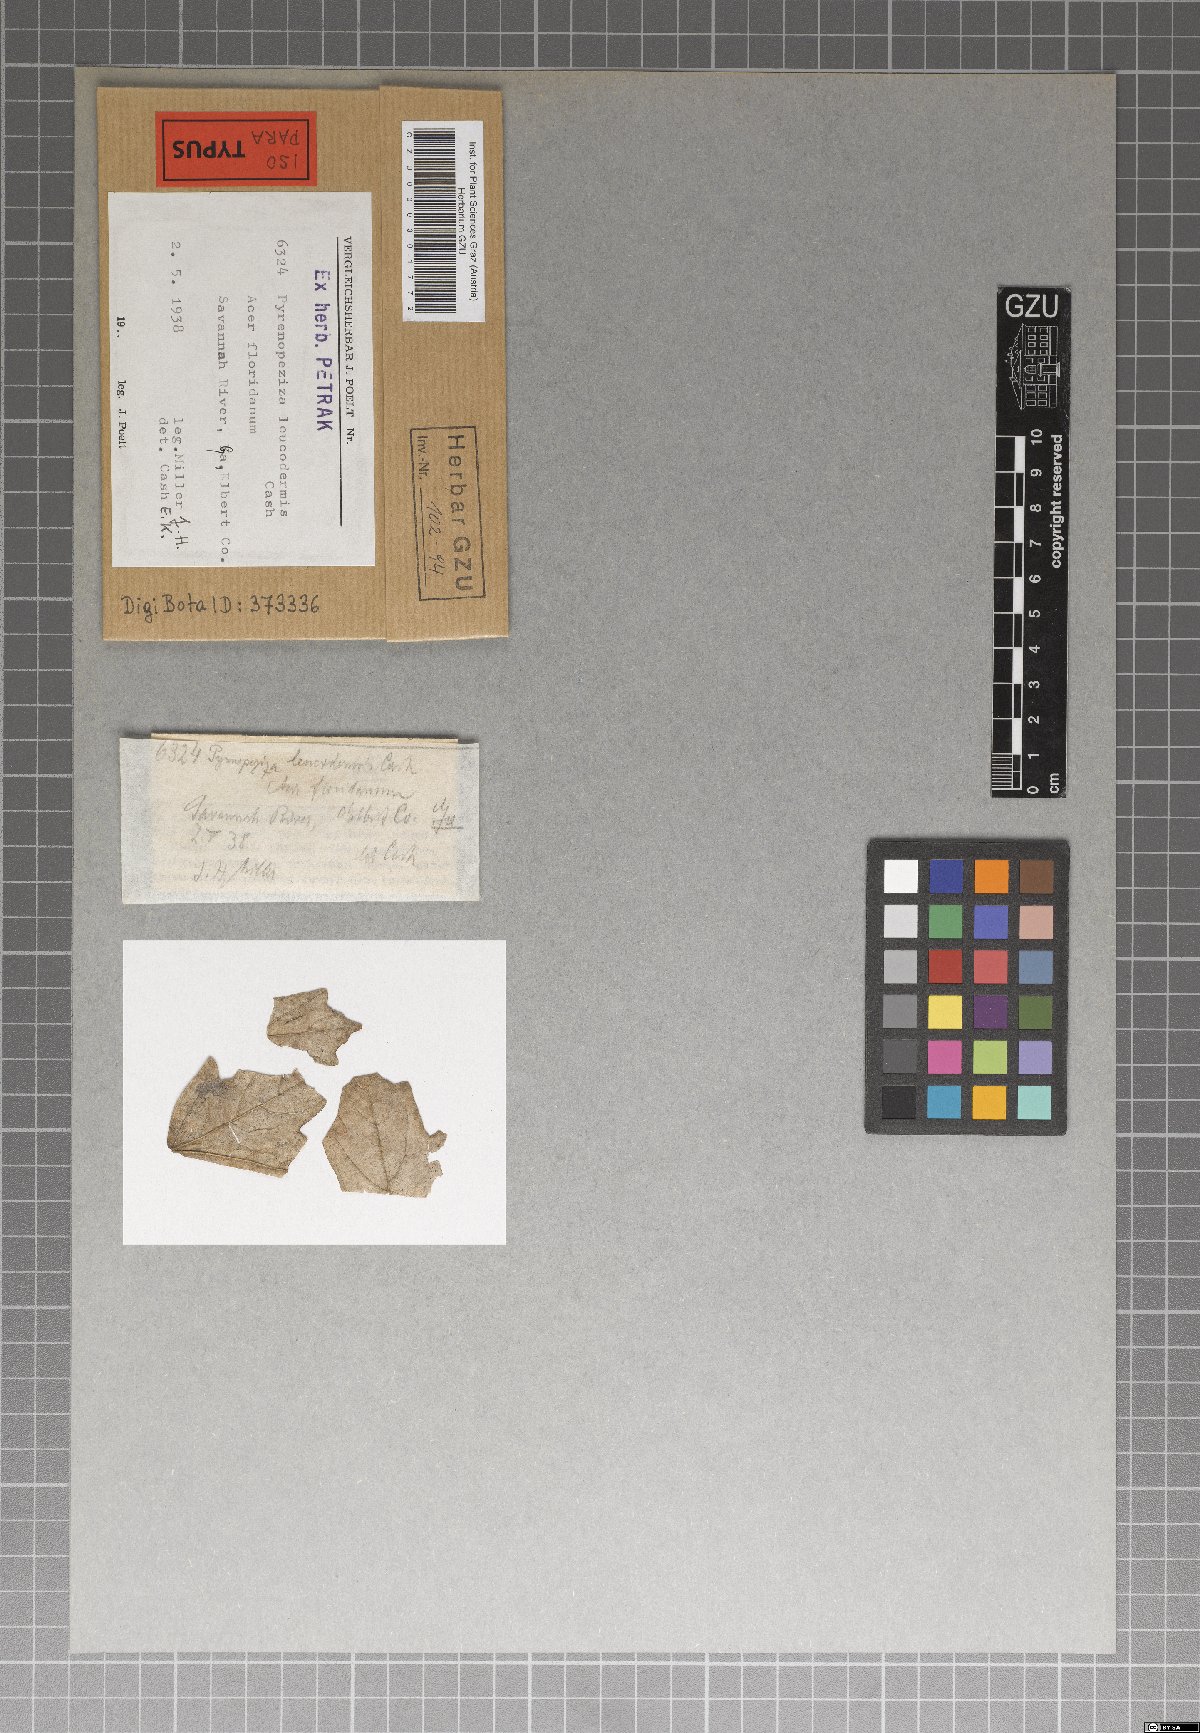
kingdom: Fungi
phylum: Ascomycota
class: Leotiomycetes
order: Helotiales
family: Ploettnerulaceae
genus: Pyrenopeziza
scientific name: Pyrenopeziza leucodermis
